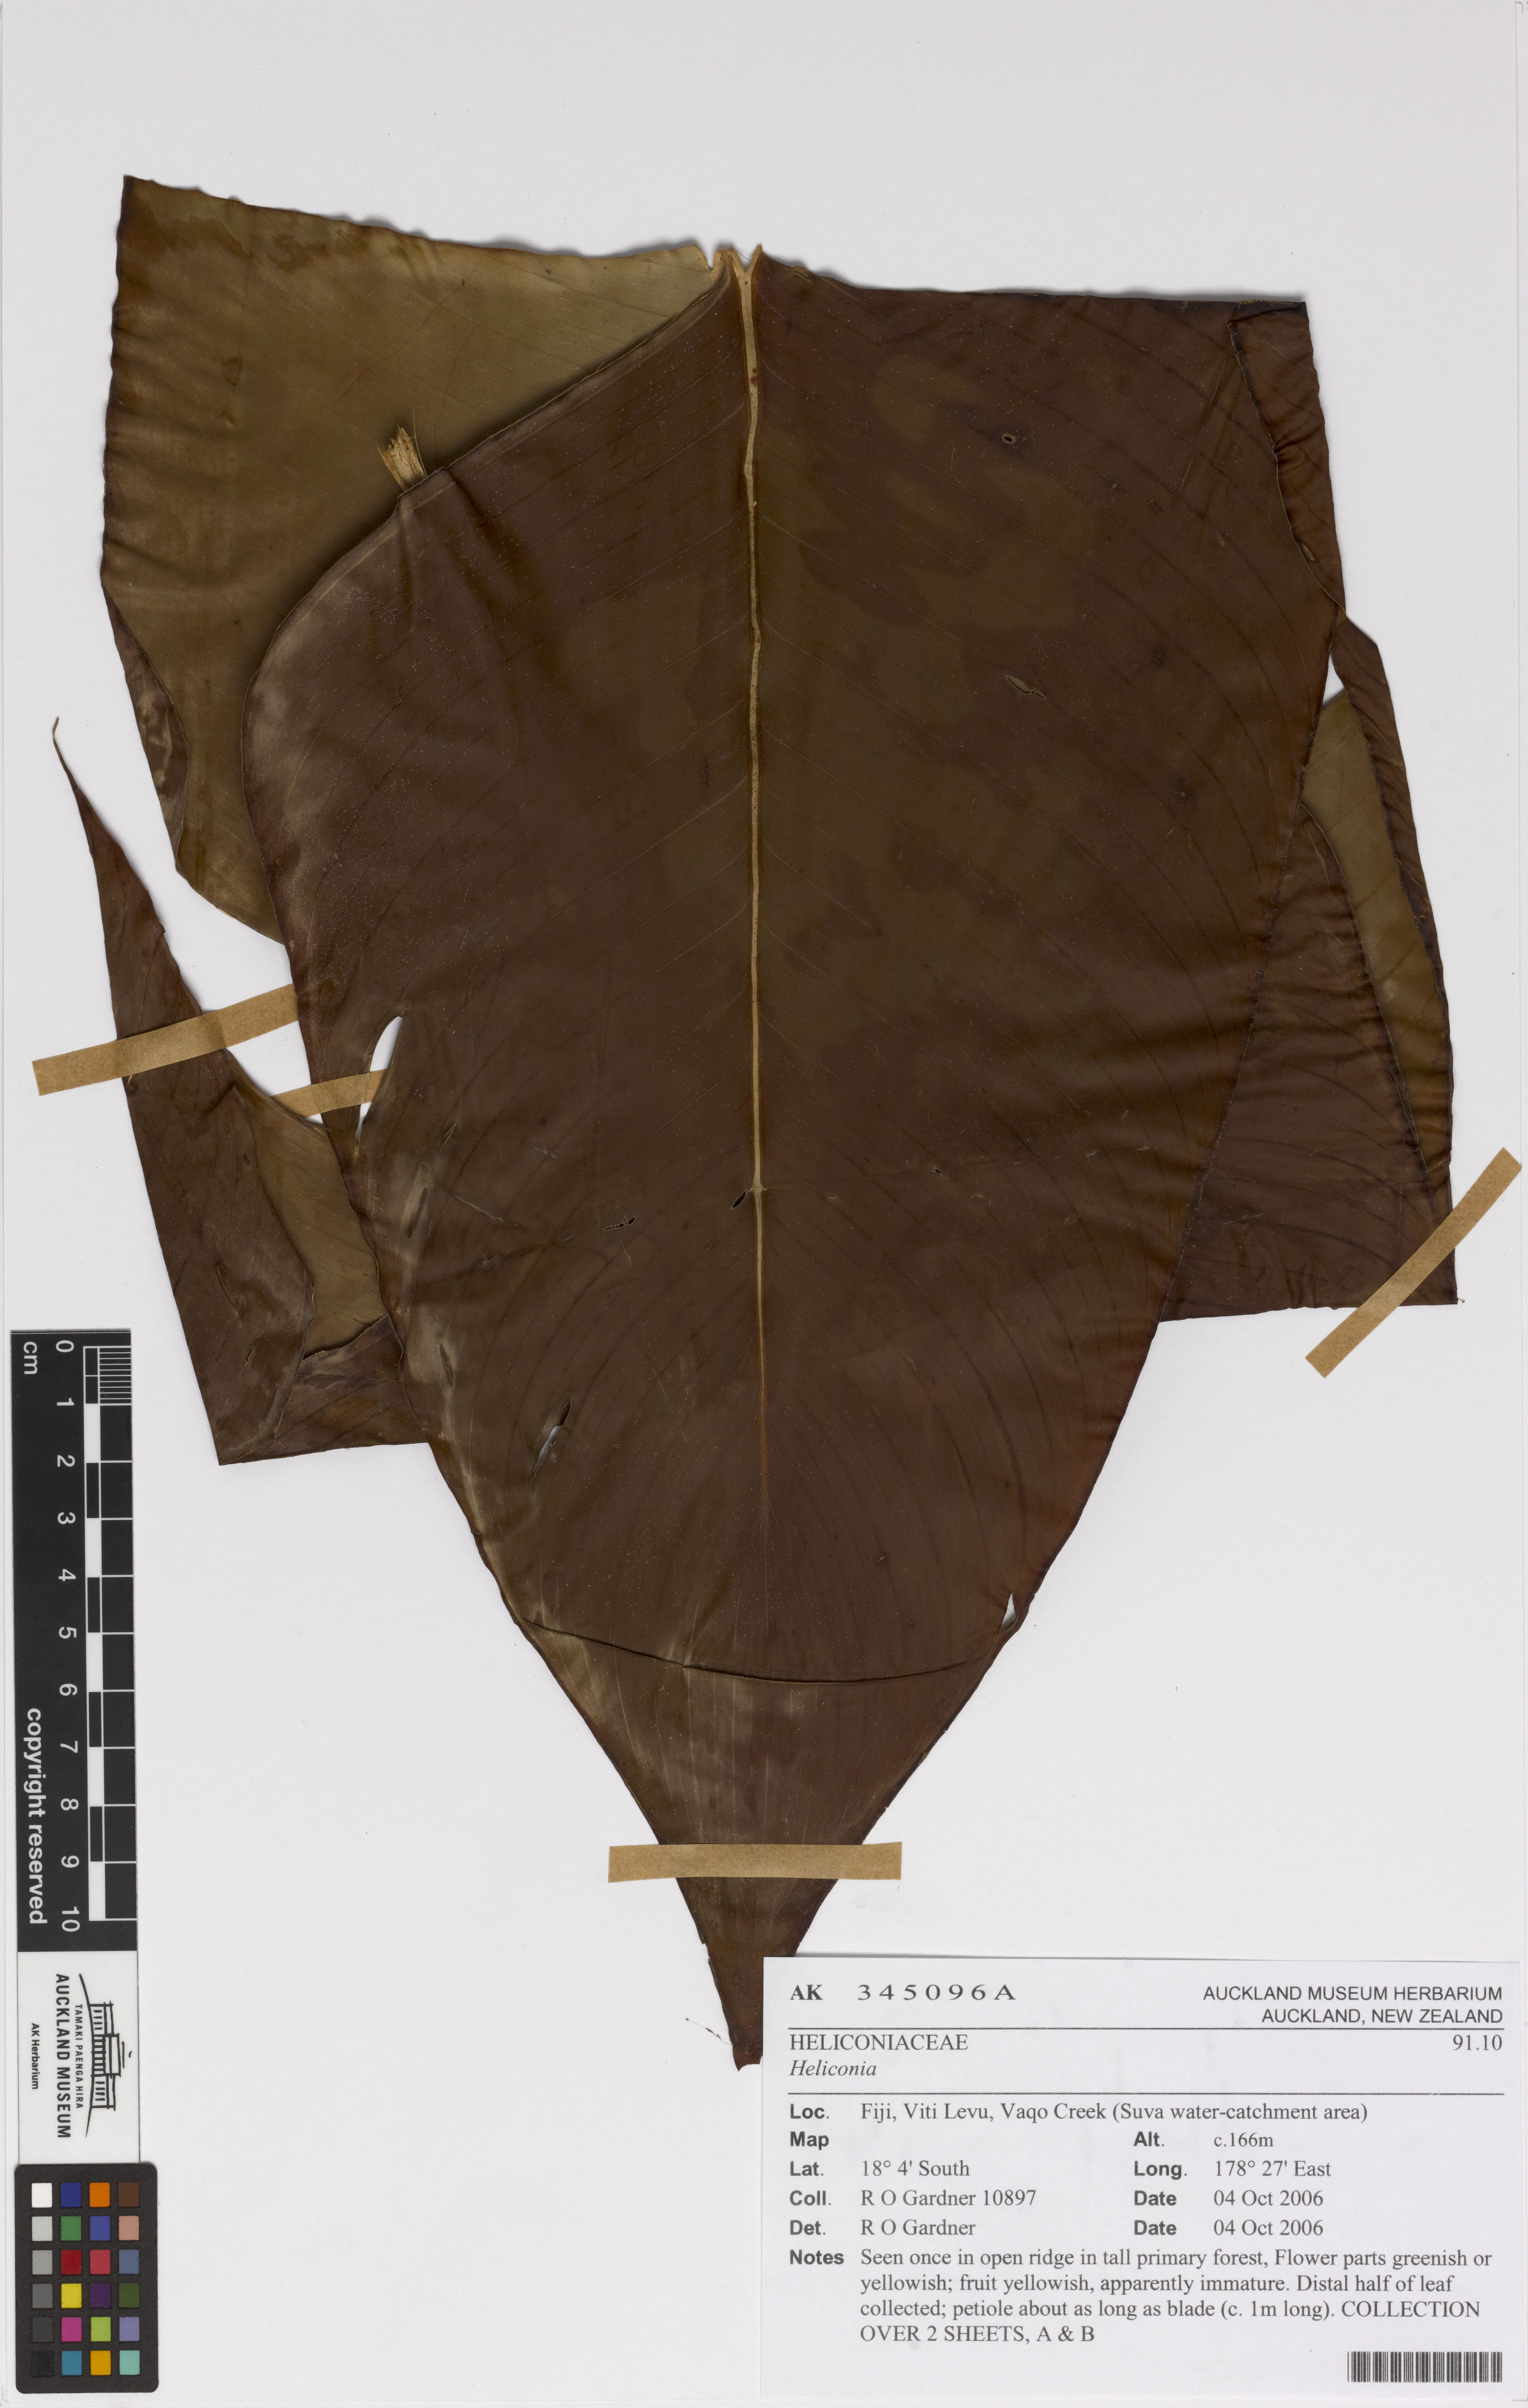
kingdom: Plantae
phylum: Tracheophyta
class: Liliopsida
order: Zingiberales
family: Heliconiaceae
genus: Heliconia
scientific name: Heliconia
